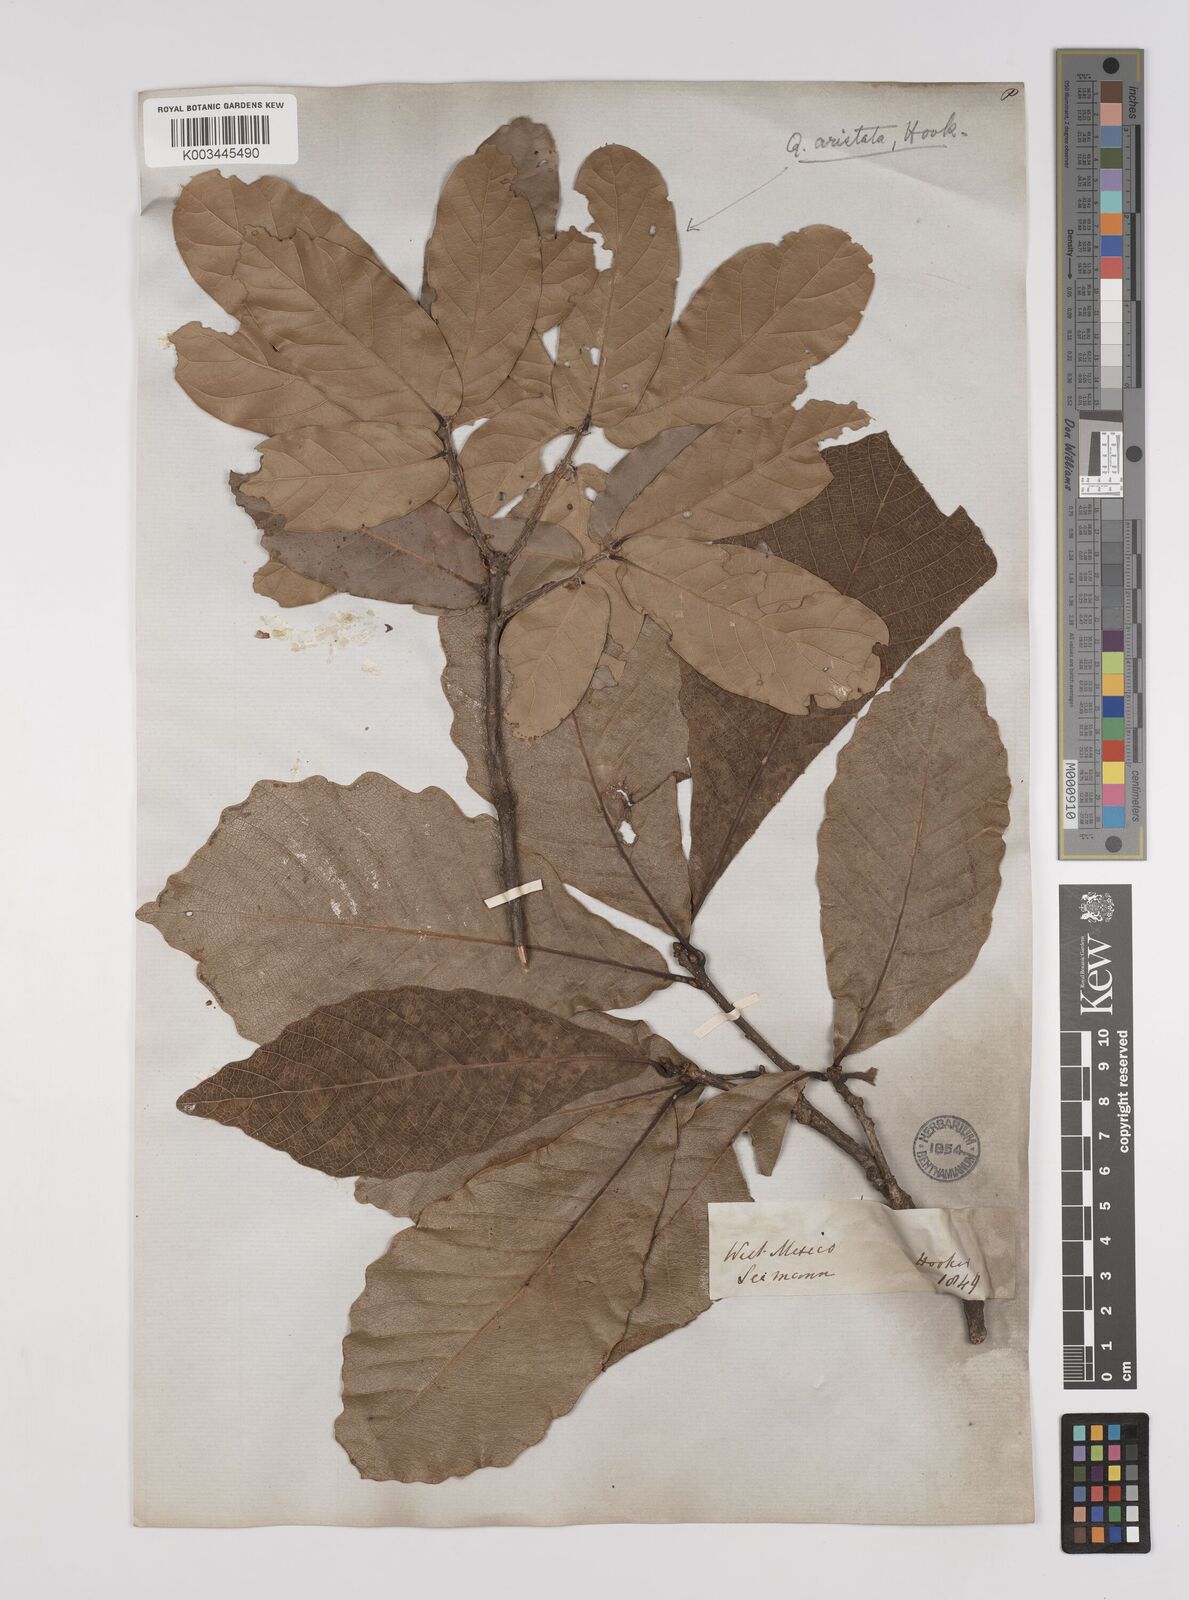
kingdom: Plantae
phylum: Tracheophyta
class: Magnoliopsida
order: Fagales
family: Fagaceae
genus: Quercus
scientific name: Quercus magnoliifolia
